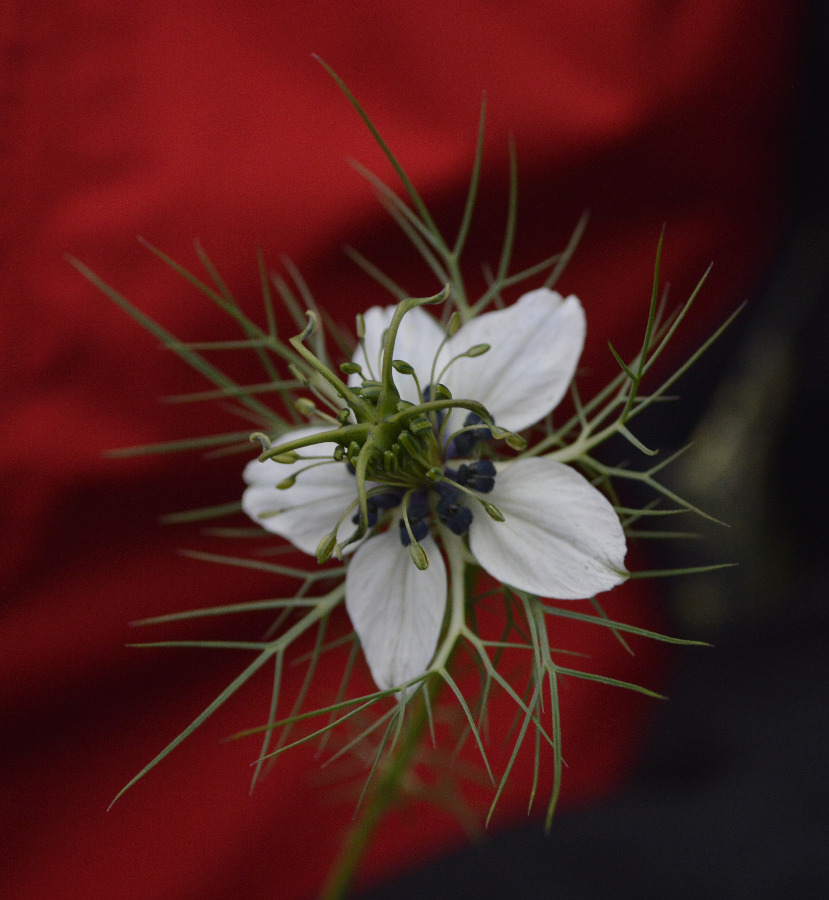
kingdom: Plantae
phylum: Tracheophyta
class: Magnoliopsida
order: Ranunculales
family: Ranunculaceae
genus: Nigella
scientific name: Nigella damascena
